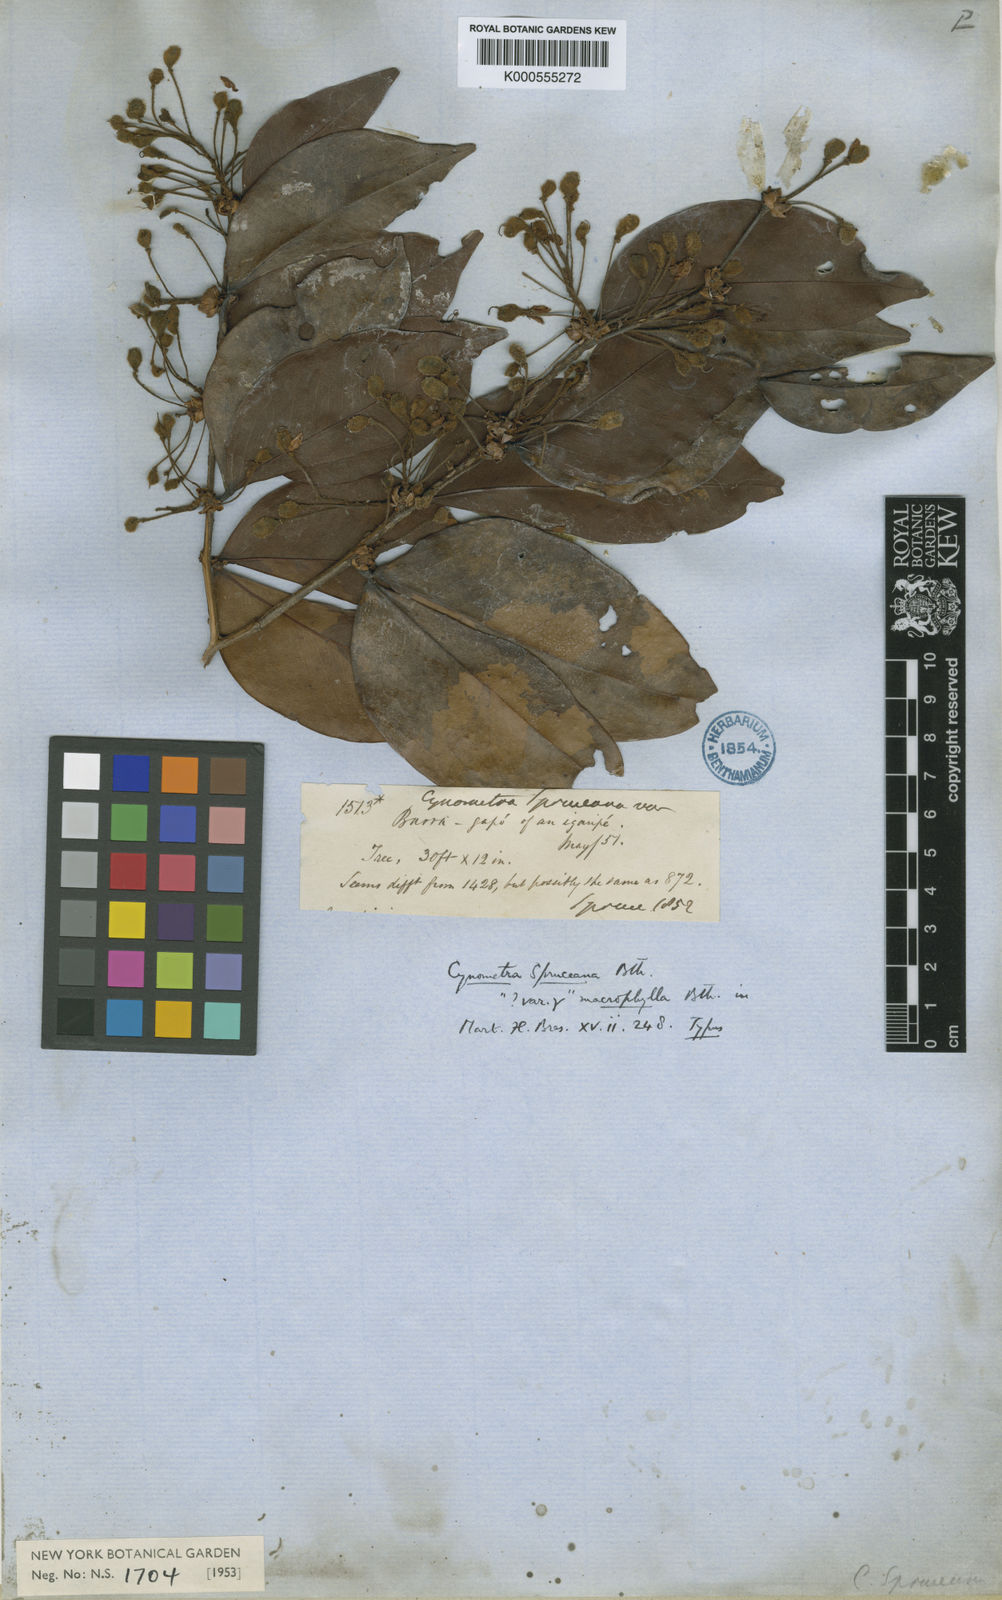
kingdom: Plantae
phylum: Tracheophyta
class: Magnoliopsida
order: Fabales
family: Fabaceae
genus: Cynometra
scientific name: Cynometra phaselocarpa
